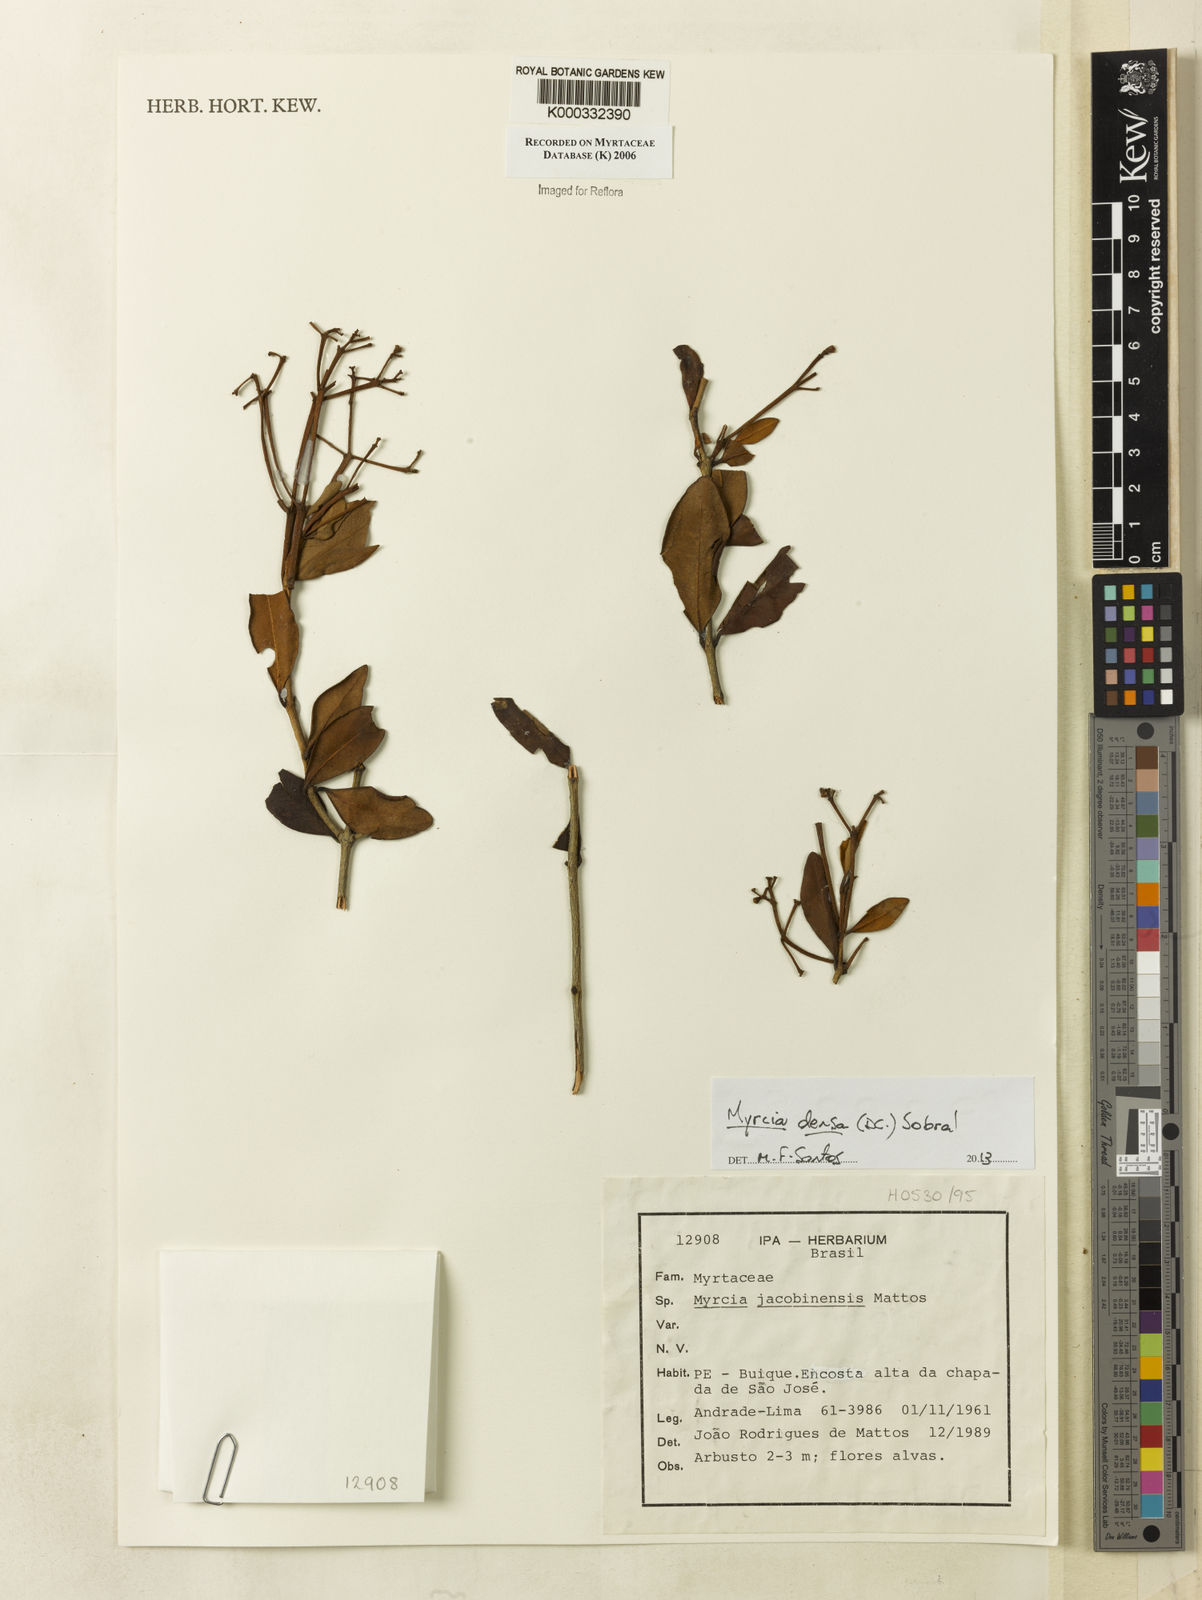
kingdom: Plantae
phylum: Tracheophyta
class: Magnoliopsida
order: Myrtales
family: Myrtaceae
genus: Myrcia
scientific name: Myrcia jacobinensis
